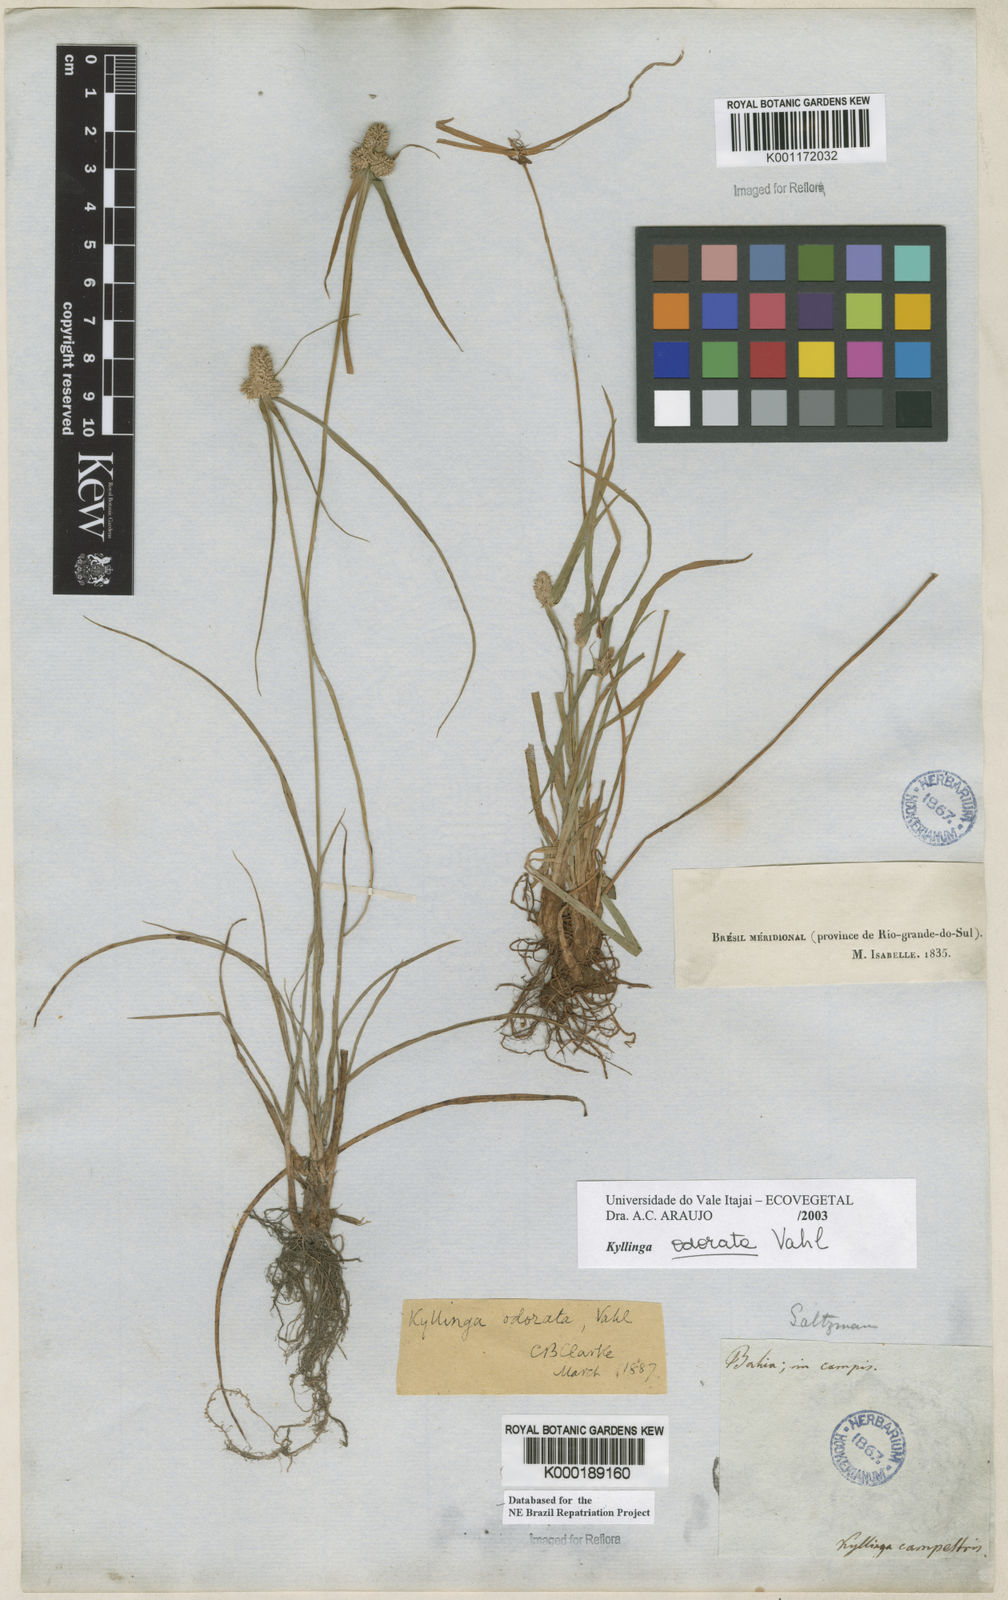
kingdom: Plantae
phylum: Tracheophyta
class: Liliopsida
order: Poales
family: Cyperaceae
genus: Cyperus
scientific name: Cyperus
